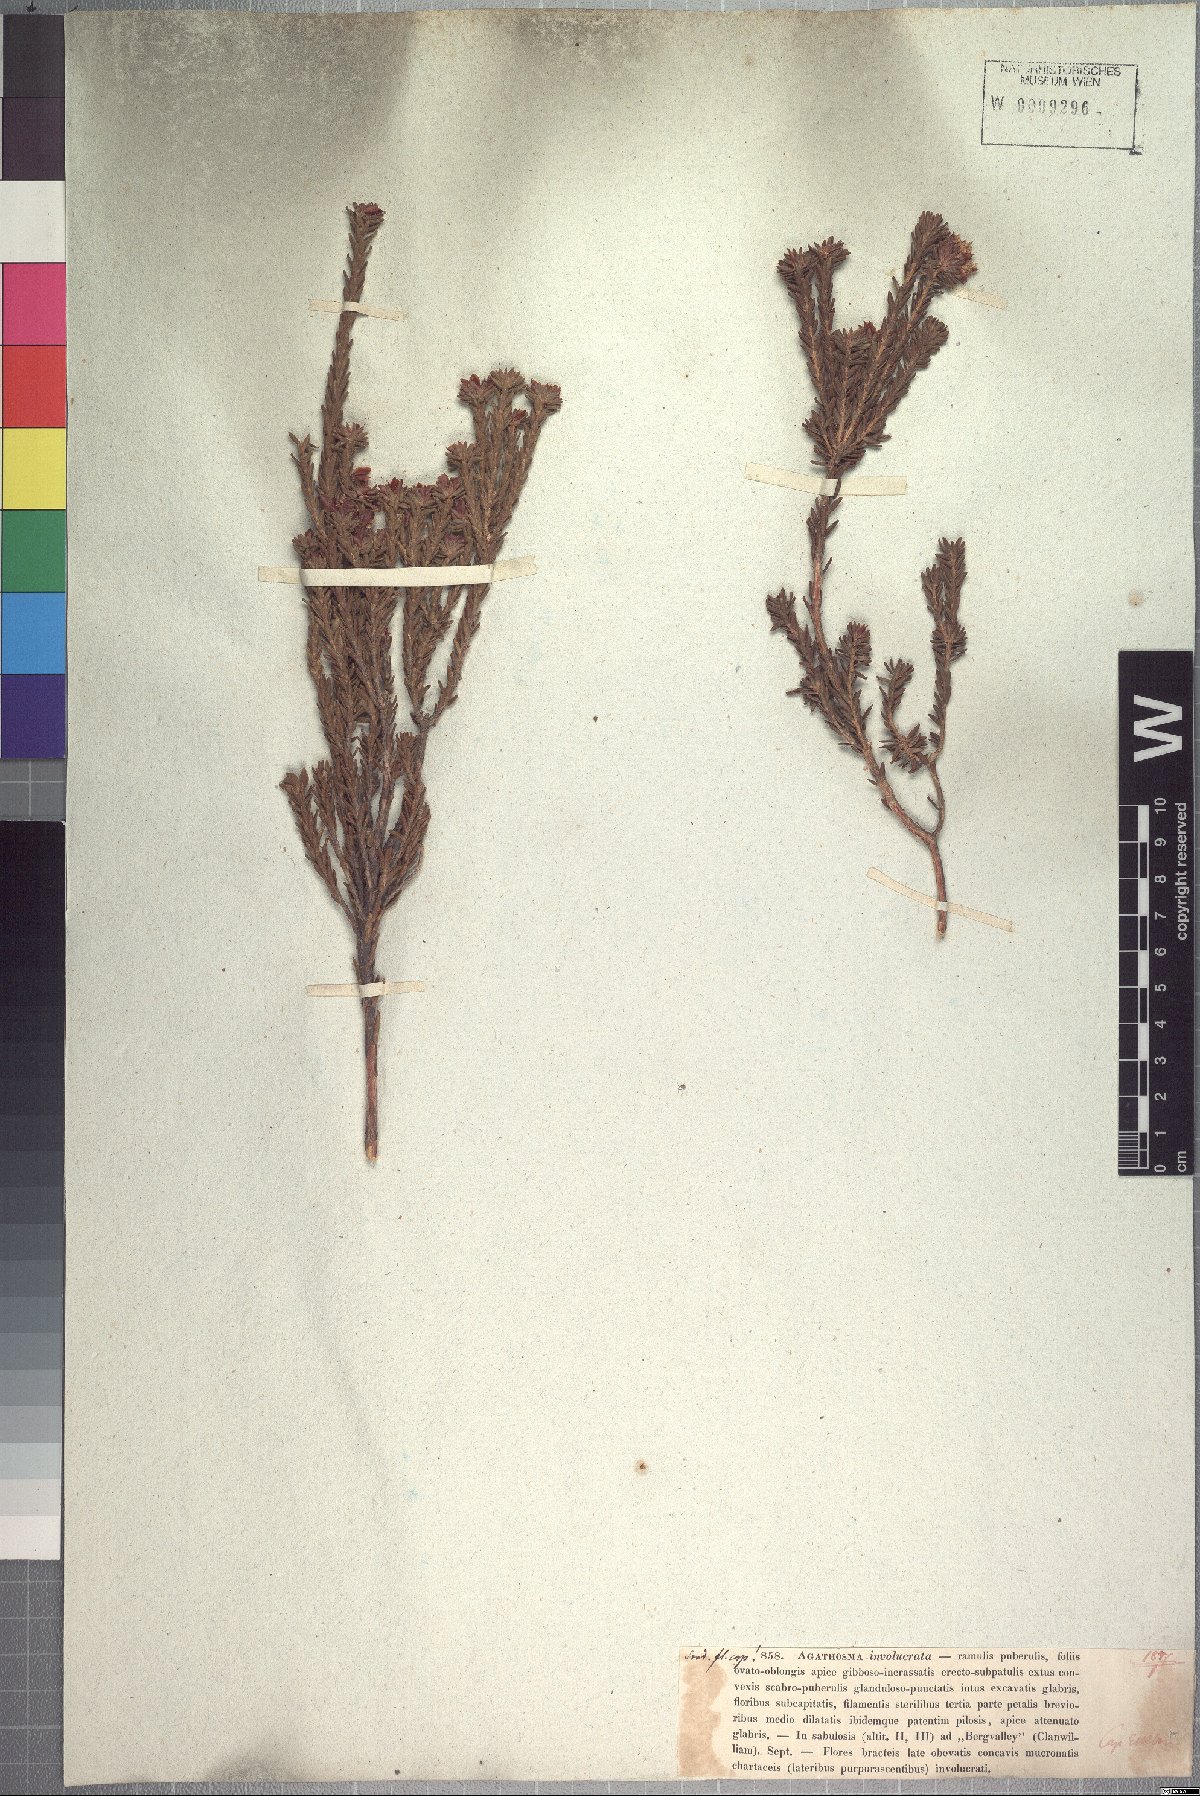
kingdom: Plantae
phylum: Tracheophyta
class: Magnoliopsida
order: Sapindales
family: Rutaceae
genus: Agathosma
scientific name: Agathosma involucrata
